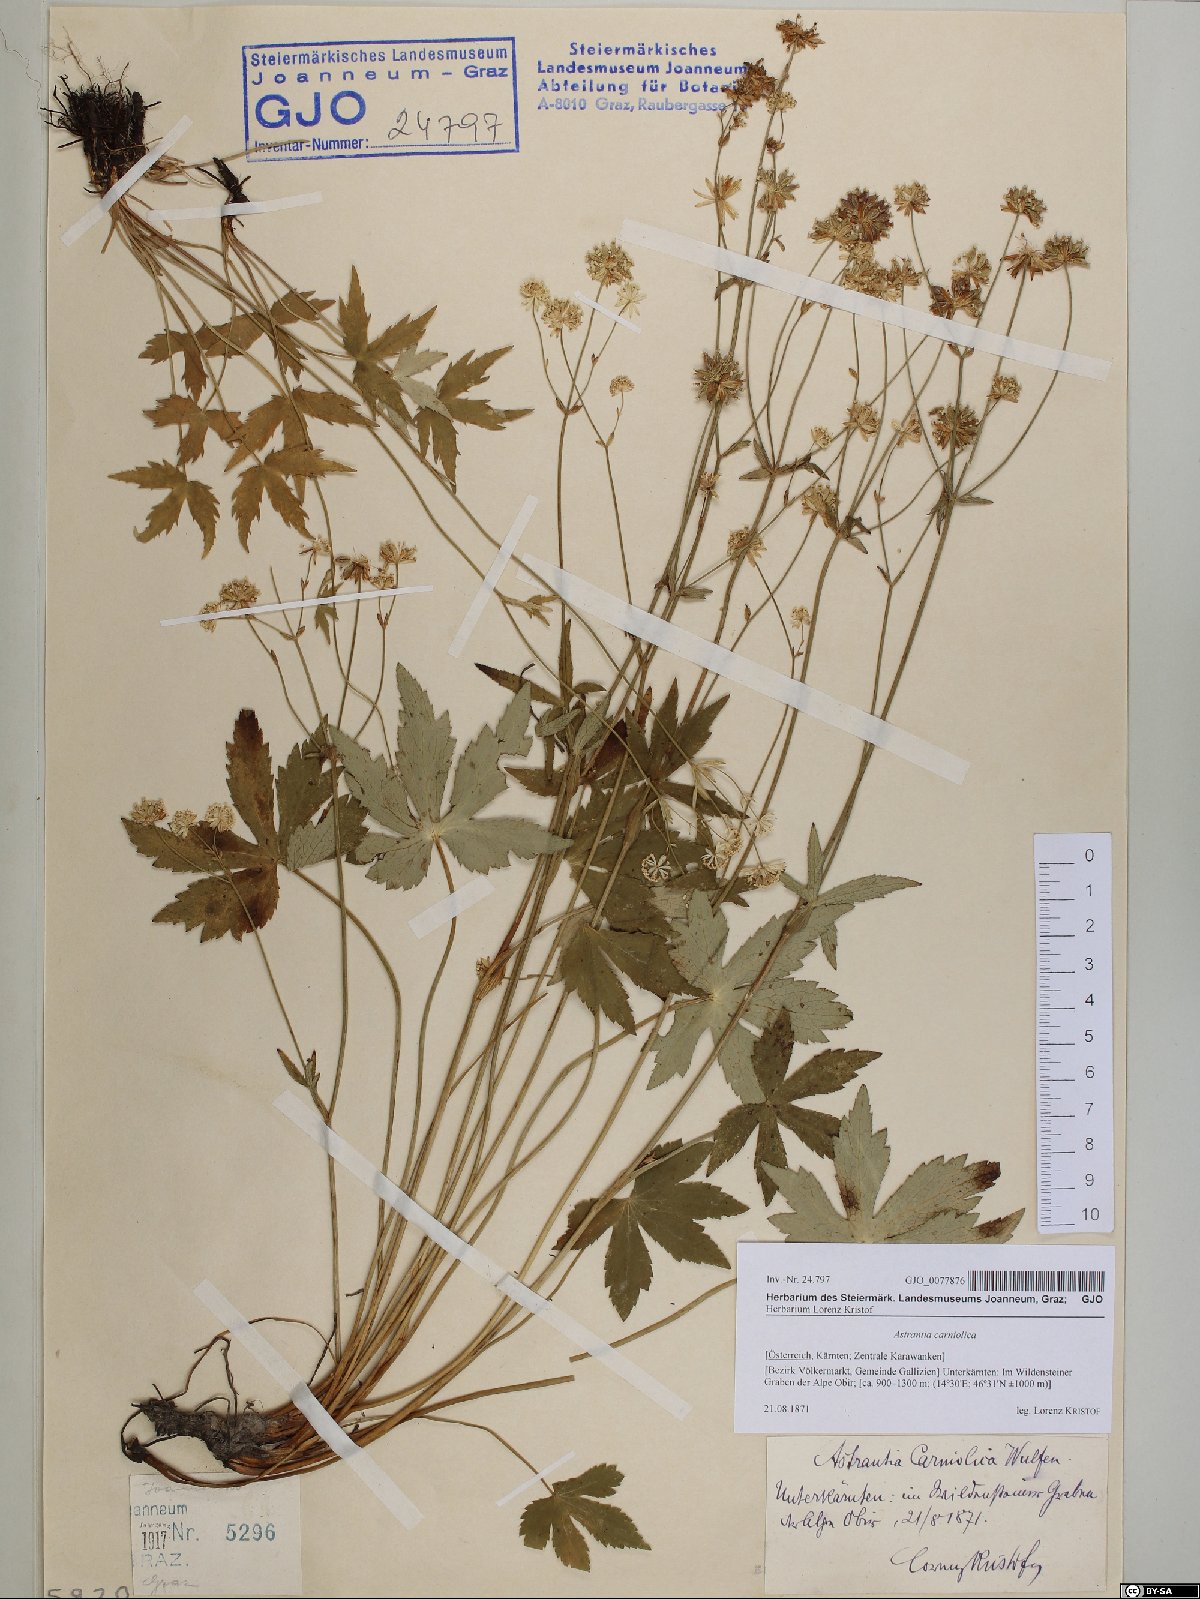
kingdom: Plantae
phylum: Tracheophyta
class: Magnoliopsida
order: Apiales
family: Apiaceae
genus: Astrantia
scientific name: Astrantia carniolica
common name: Carnic masterwort
